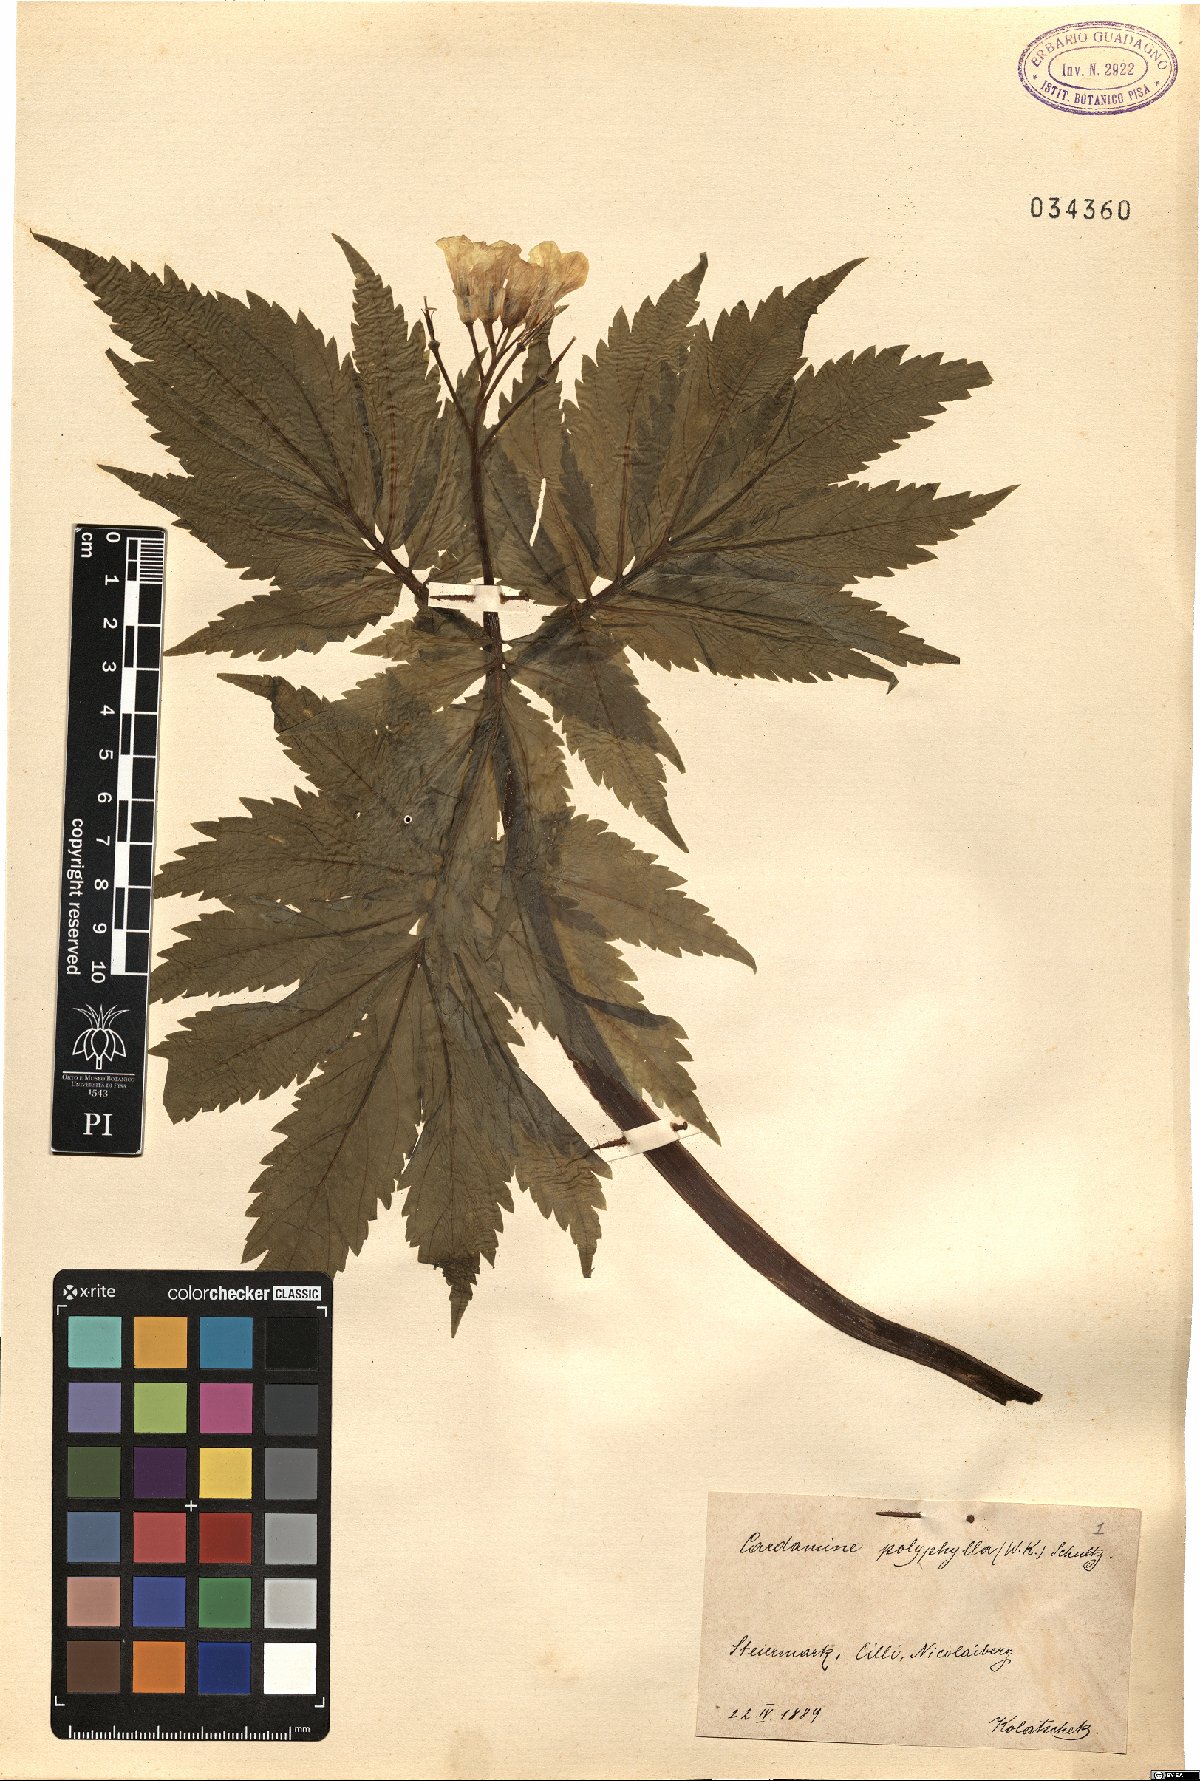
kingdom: Plantae
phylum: Tracheophyta
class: Magnoliopsida
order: Brassicales
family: Brassicaceae
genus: Cardamine
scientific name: Cardamine kitaibelii
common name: Kitaibel's bitter-cress
